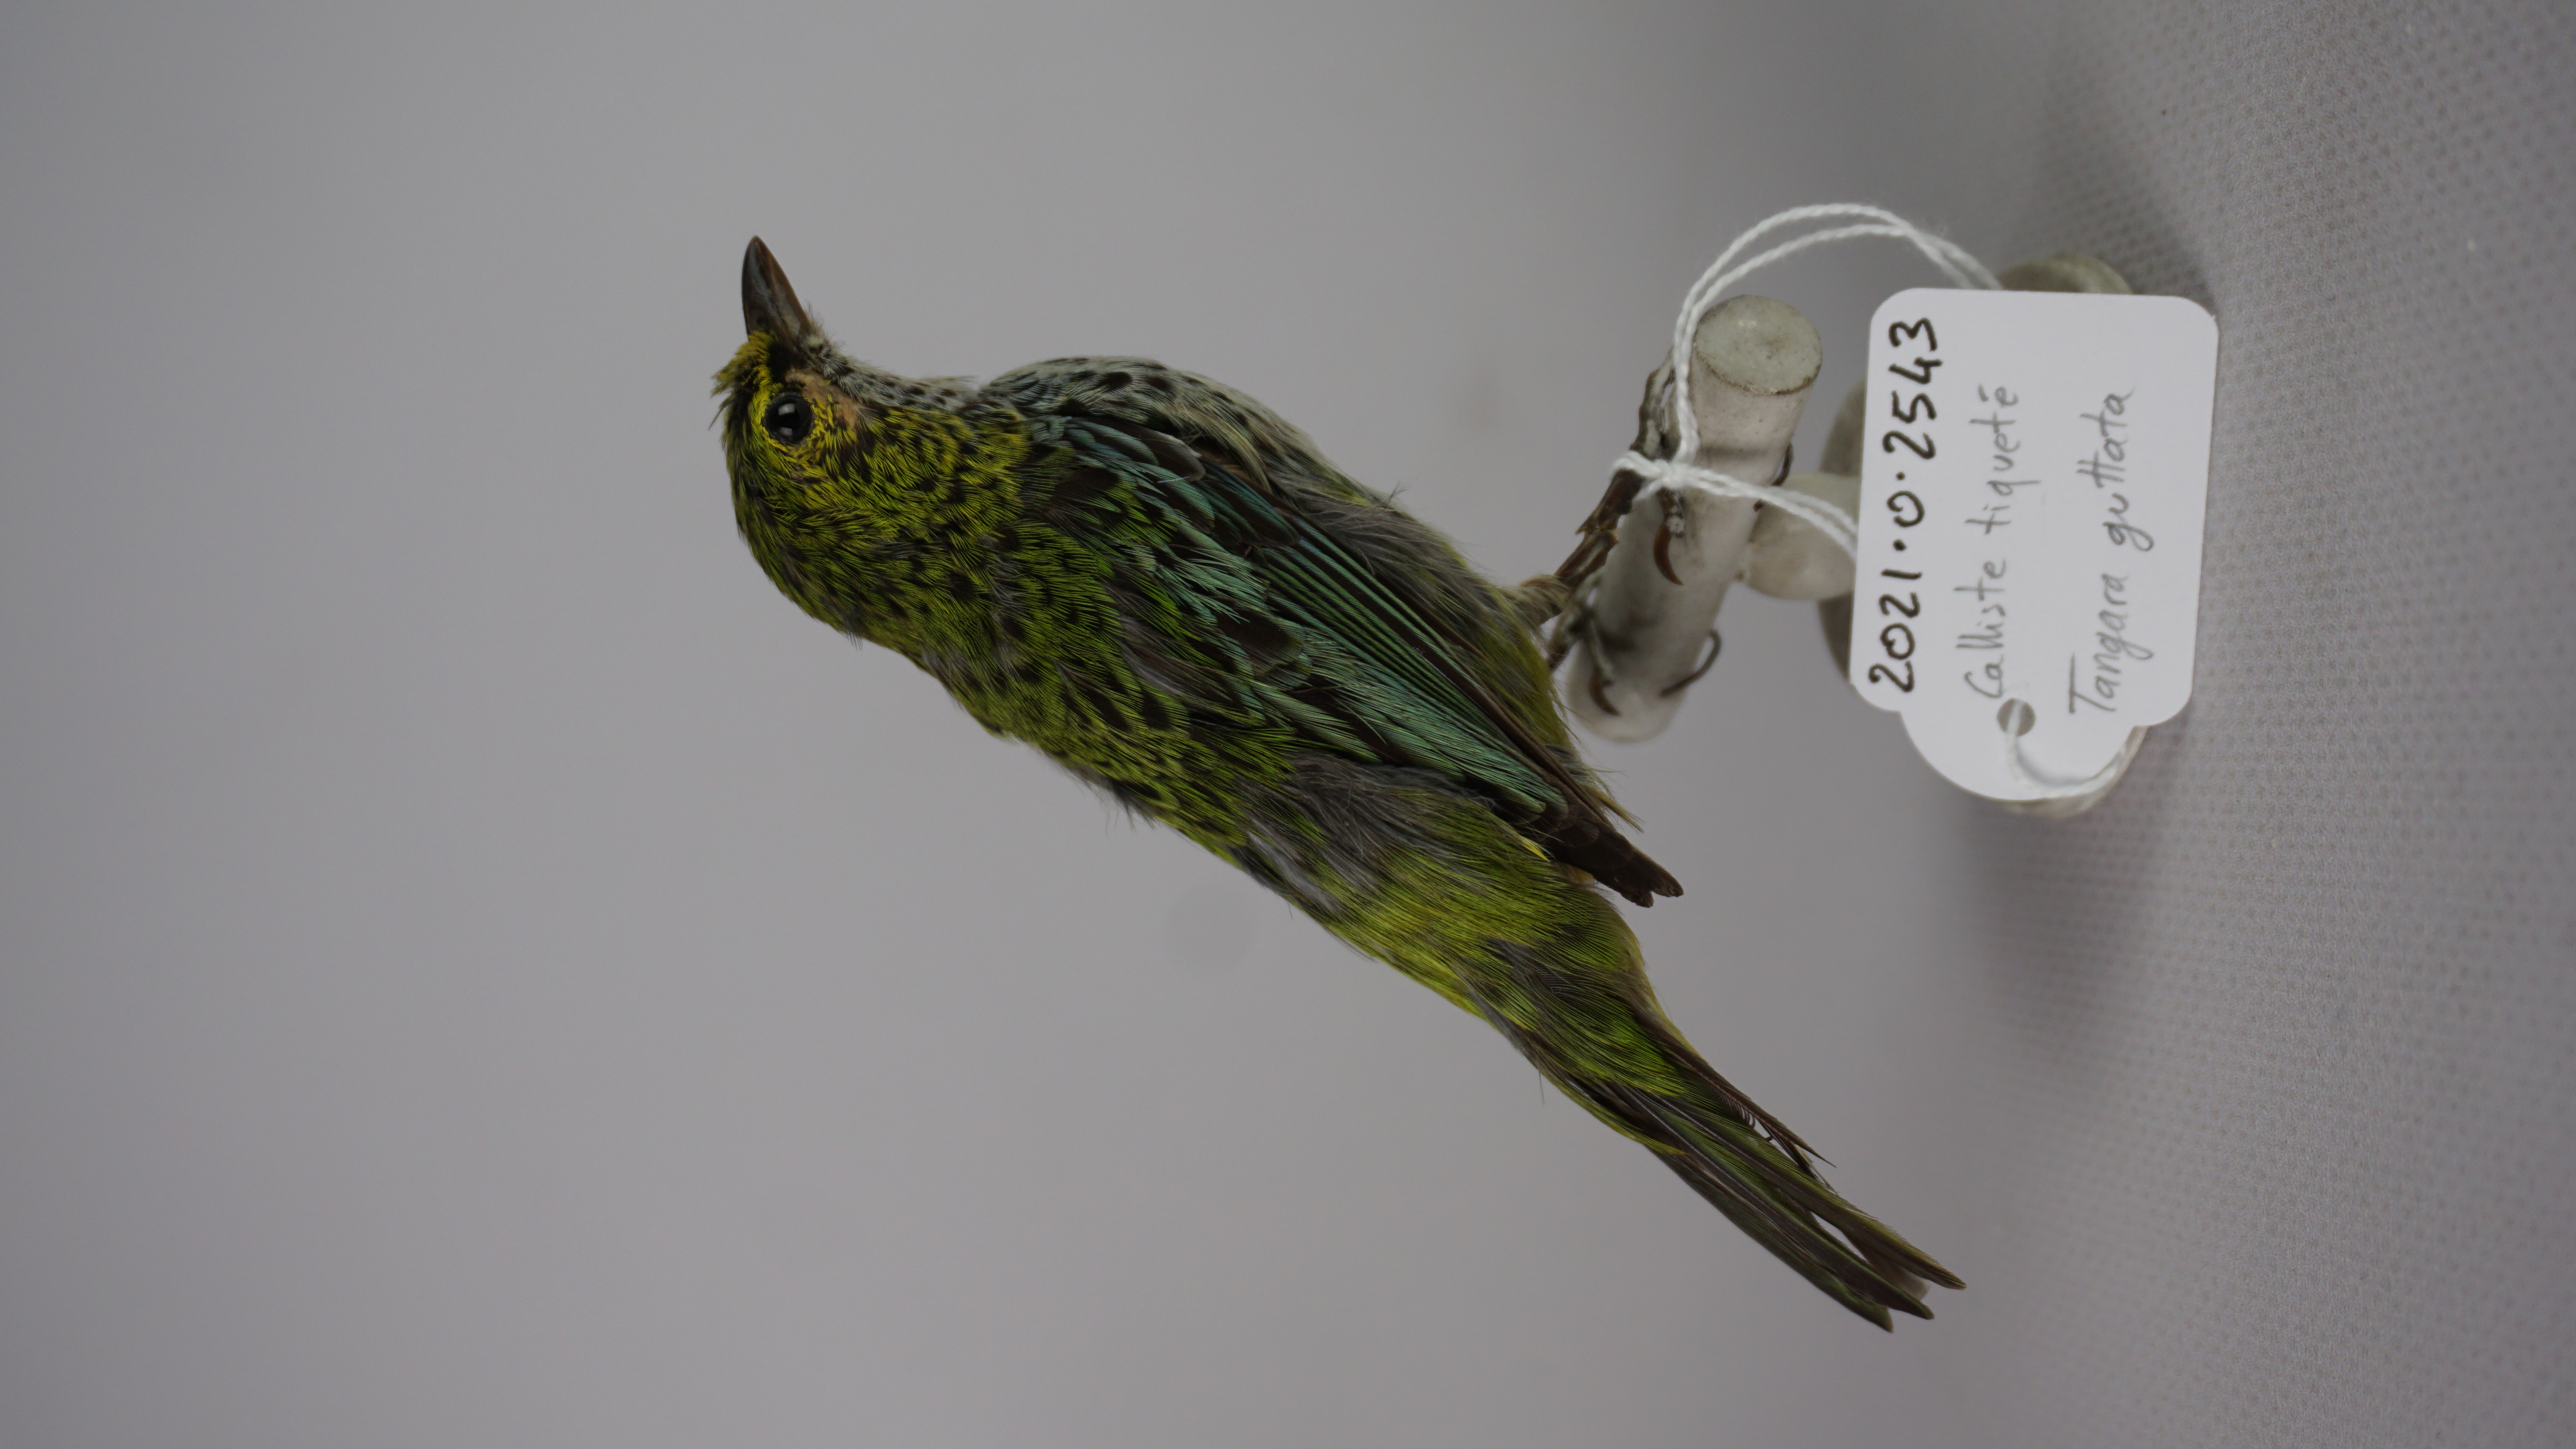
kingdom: Animalia
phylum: Chordata
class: Aves
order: Passeriformes
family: Thraupidae
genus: Ixothraupis
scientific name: Ixothraupis guttata
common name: Speckled tanager
